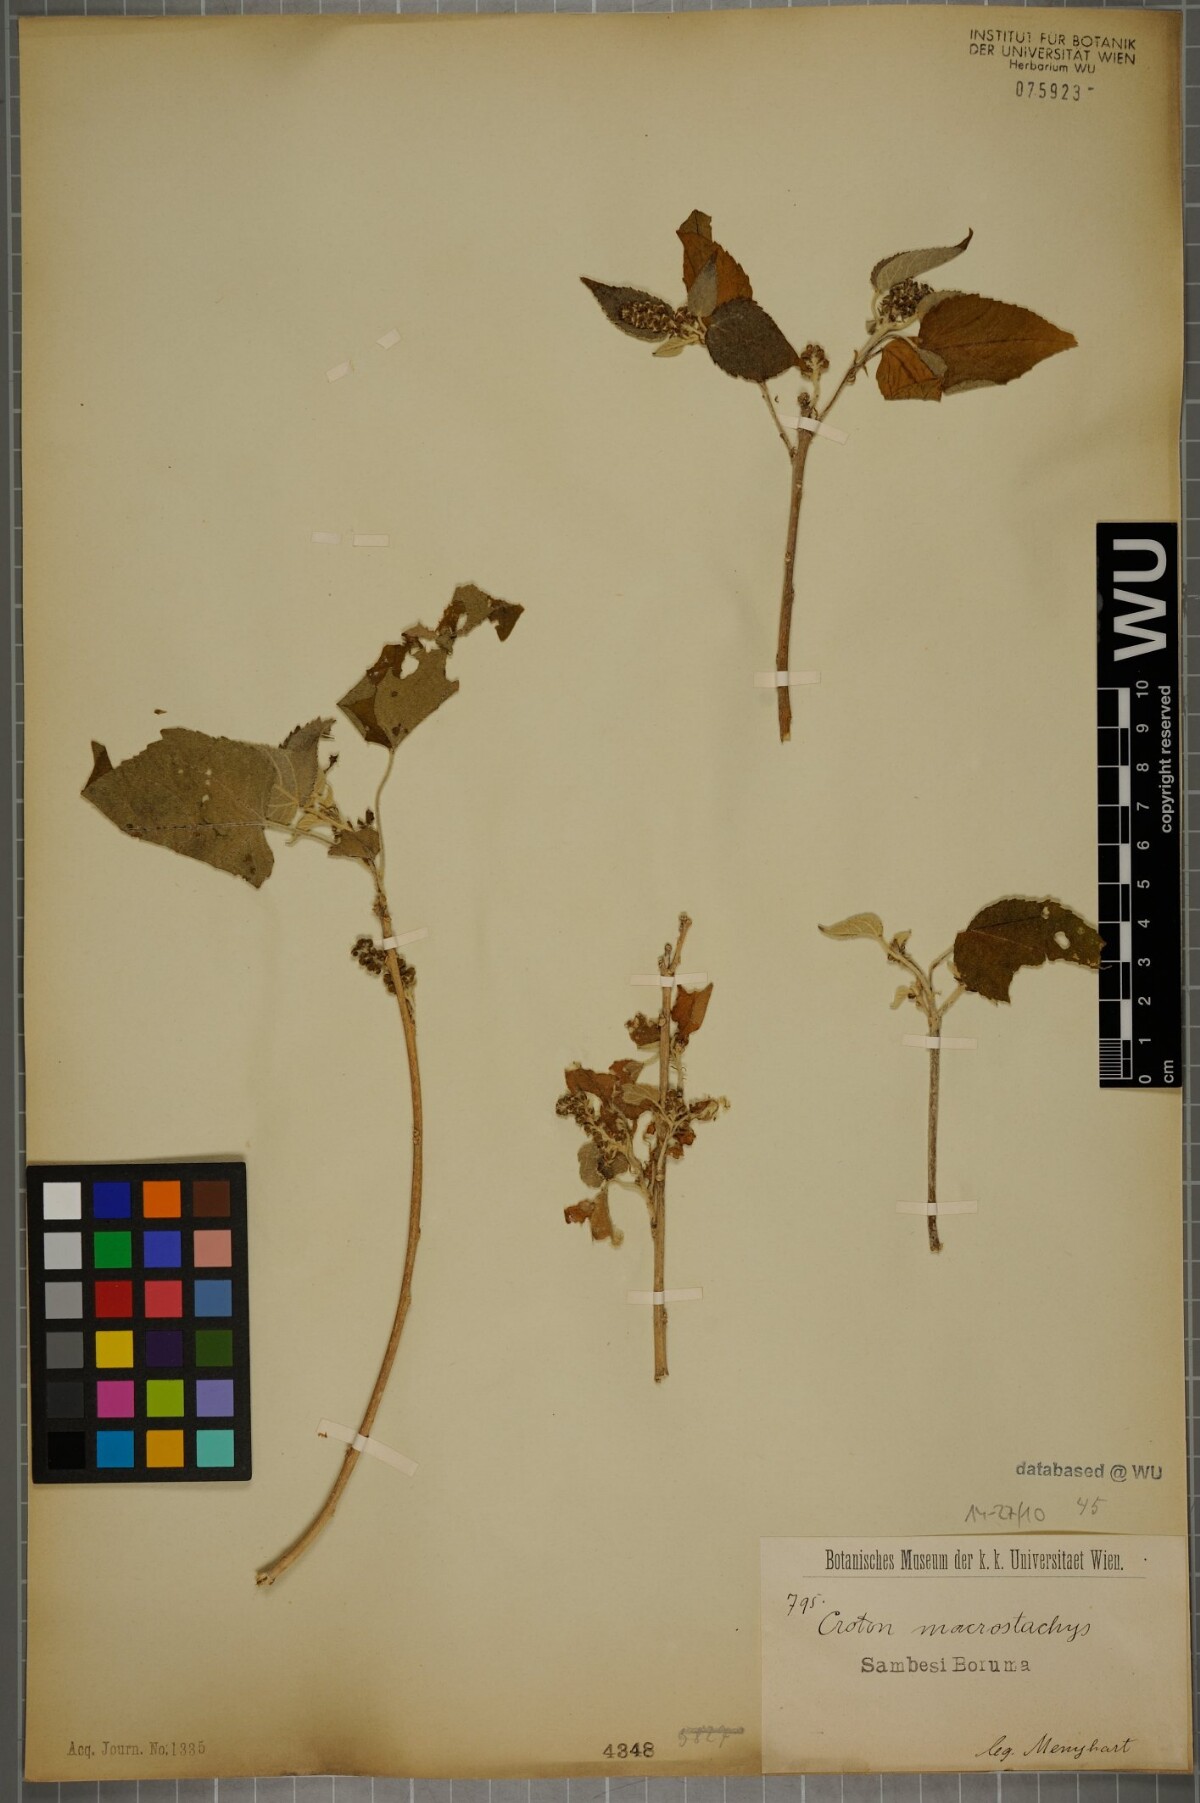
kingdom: Plantae
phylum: Tracheophyta
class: Magnoliopsida
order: Malpighiales
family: Euphorbiaceae
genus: Croton
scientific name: Croton macrostachys
